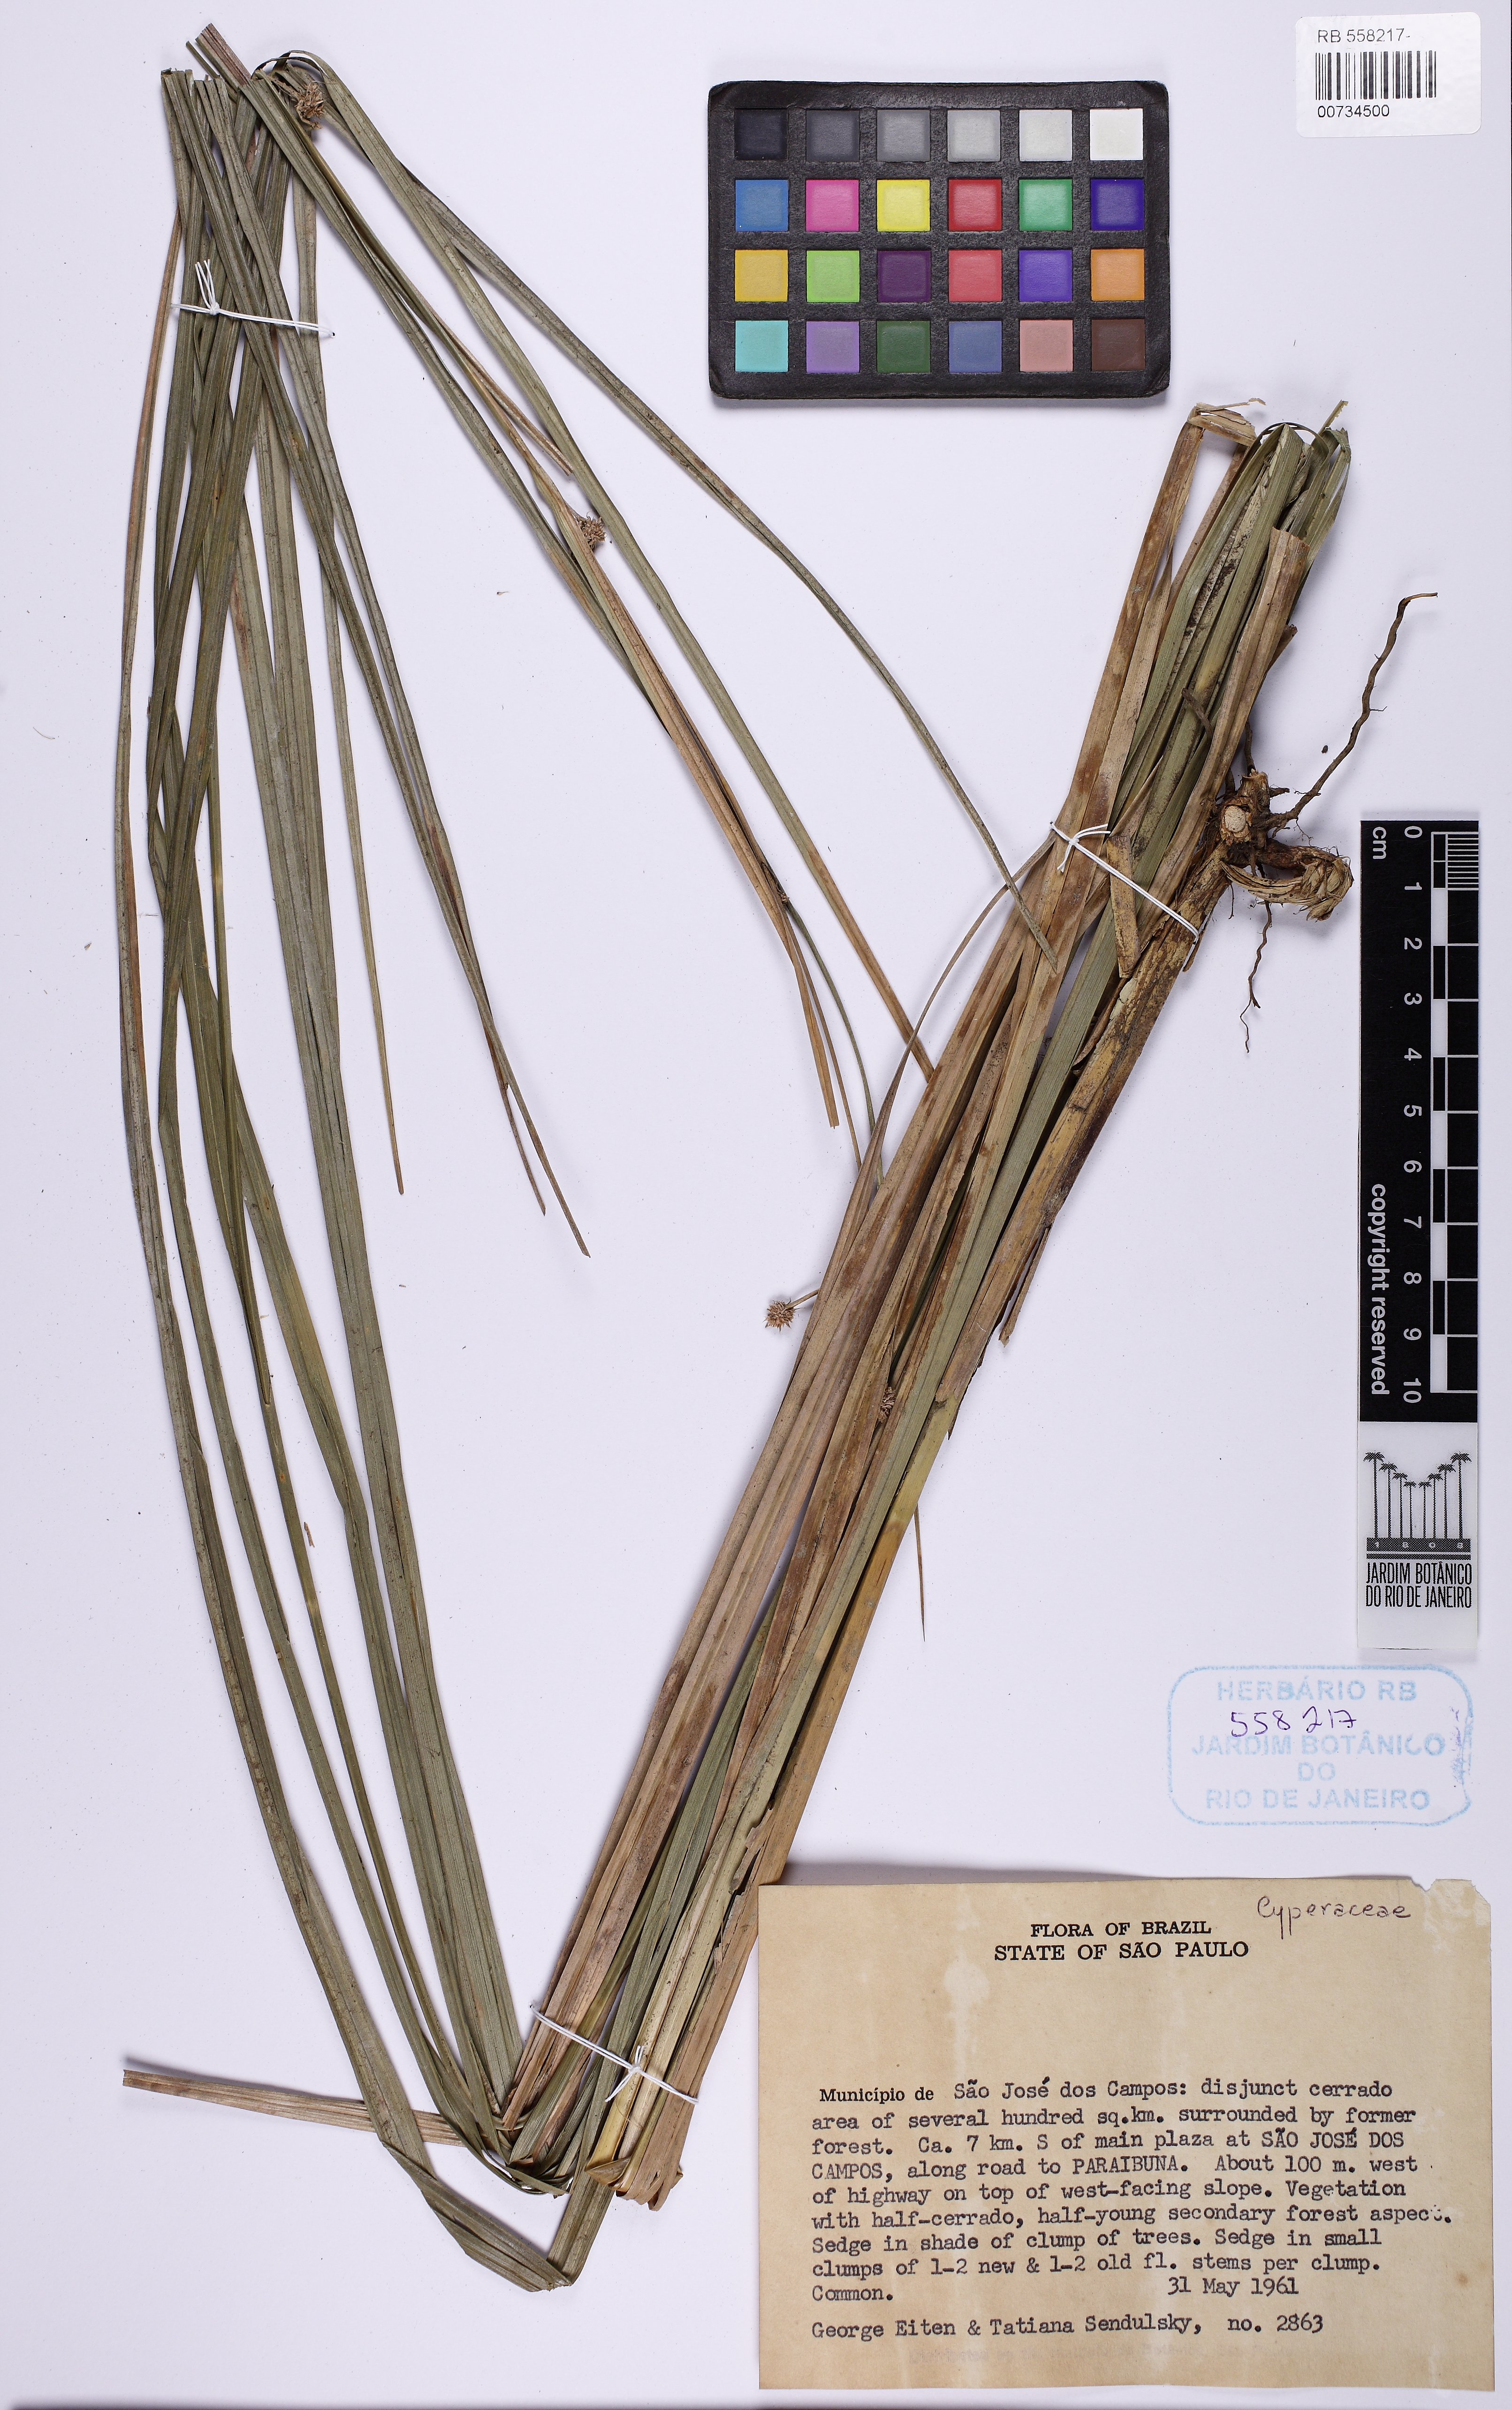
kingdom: Plantae
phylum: Tracheophyta
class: Liliopsida
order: Poales
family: Cyperaceae
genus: Rhynchospora
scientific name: Rhynchospora exaltata
